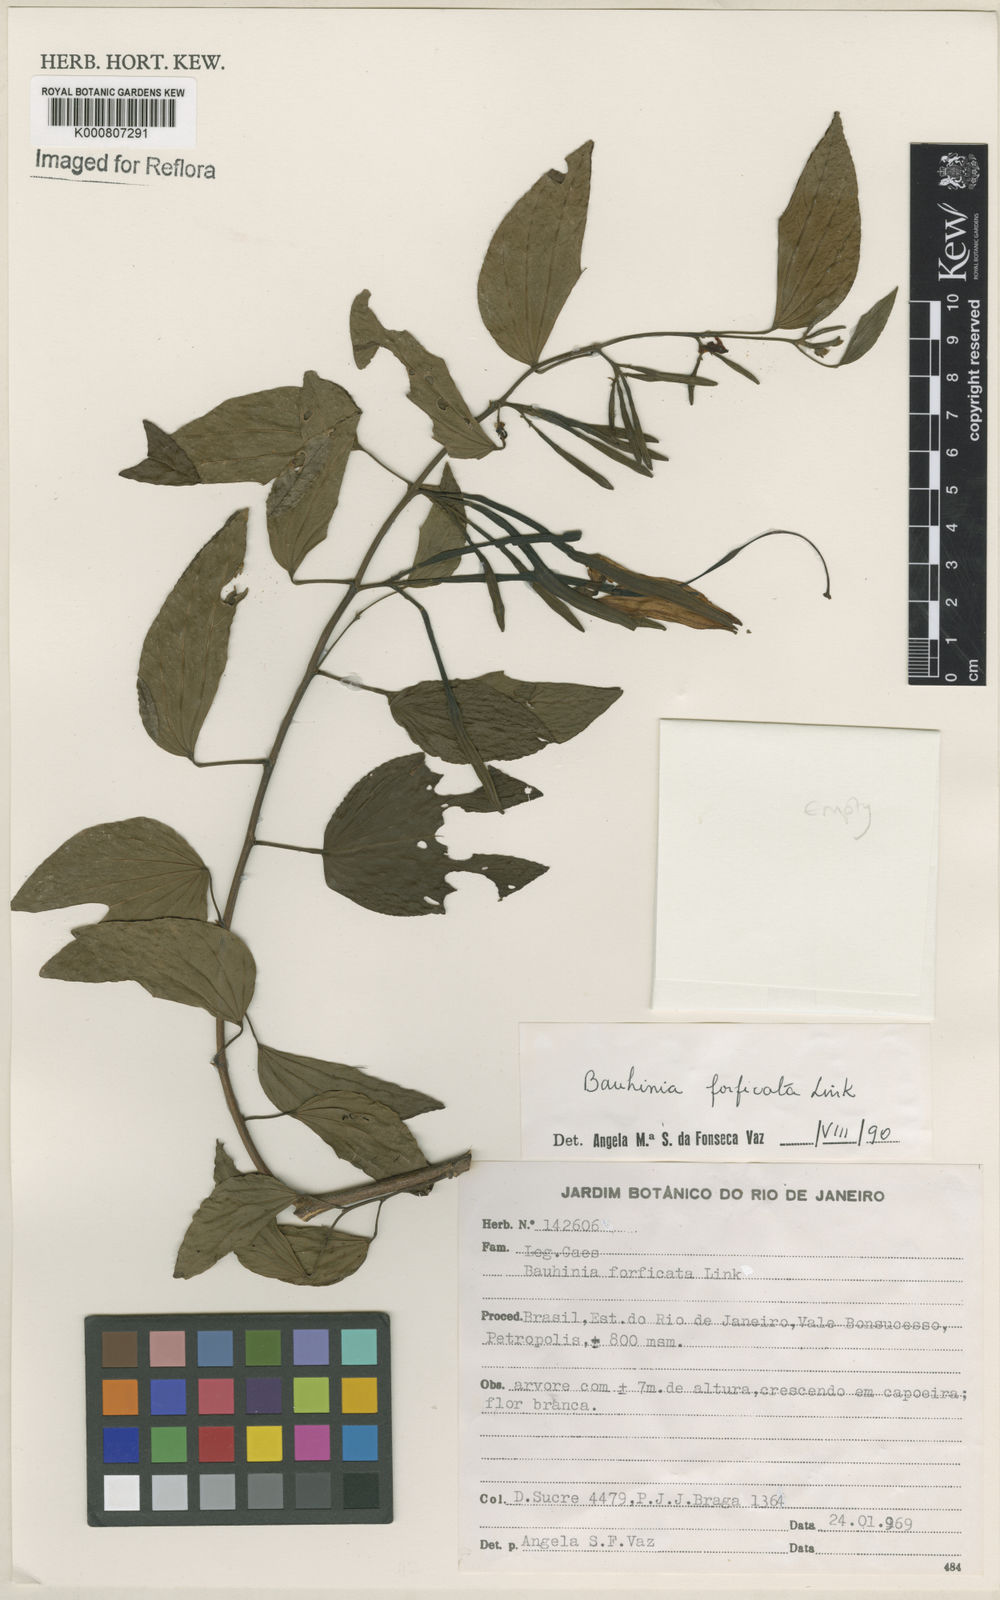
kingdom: Plantae
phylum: Tracheophyta
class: Magnoliopsida
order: Fabales
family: Fabaceae
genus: Bauhinia
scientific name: Bauhinia forficata
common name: Orchid tree
